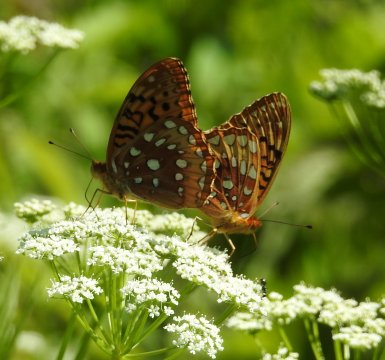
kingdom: Animalia
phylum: Arthropoda
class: Insecta
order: Lepidoptera
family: Nymphalidae
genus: Speyeria
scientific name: Speyeria cybele
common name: Great Spangled Fritillary
